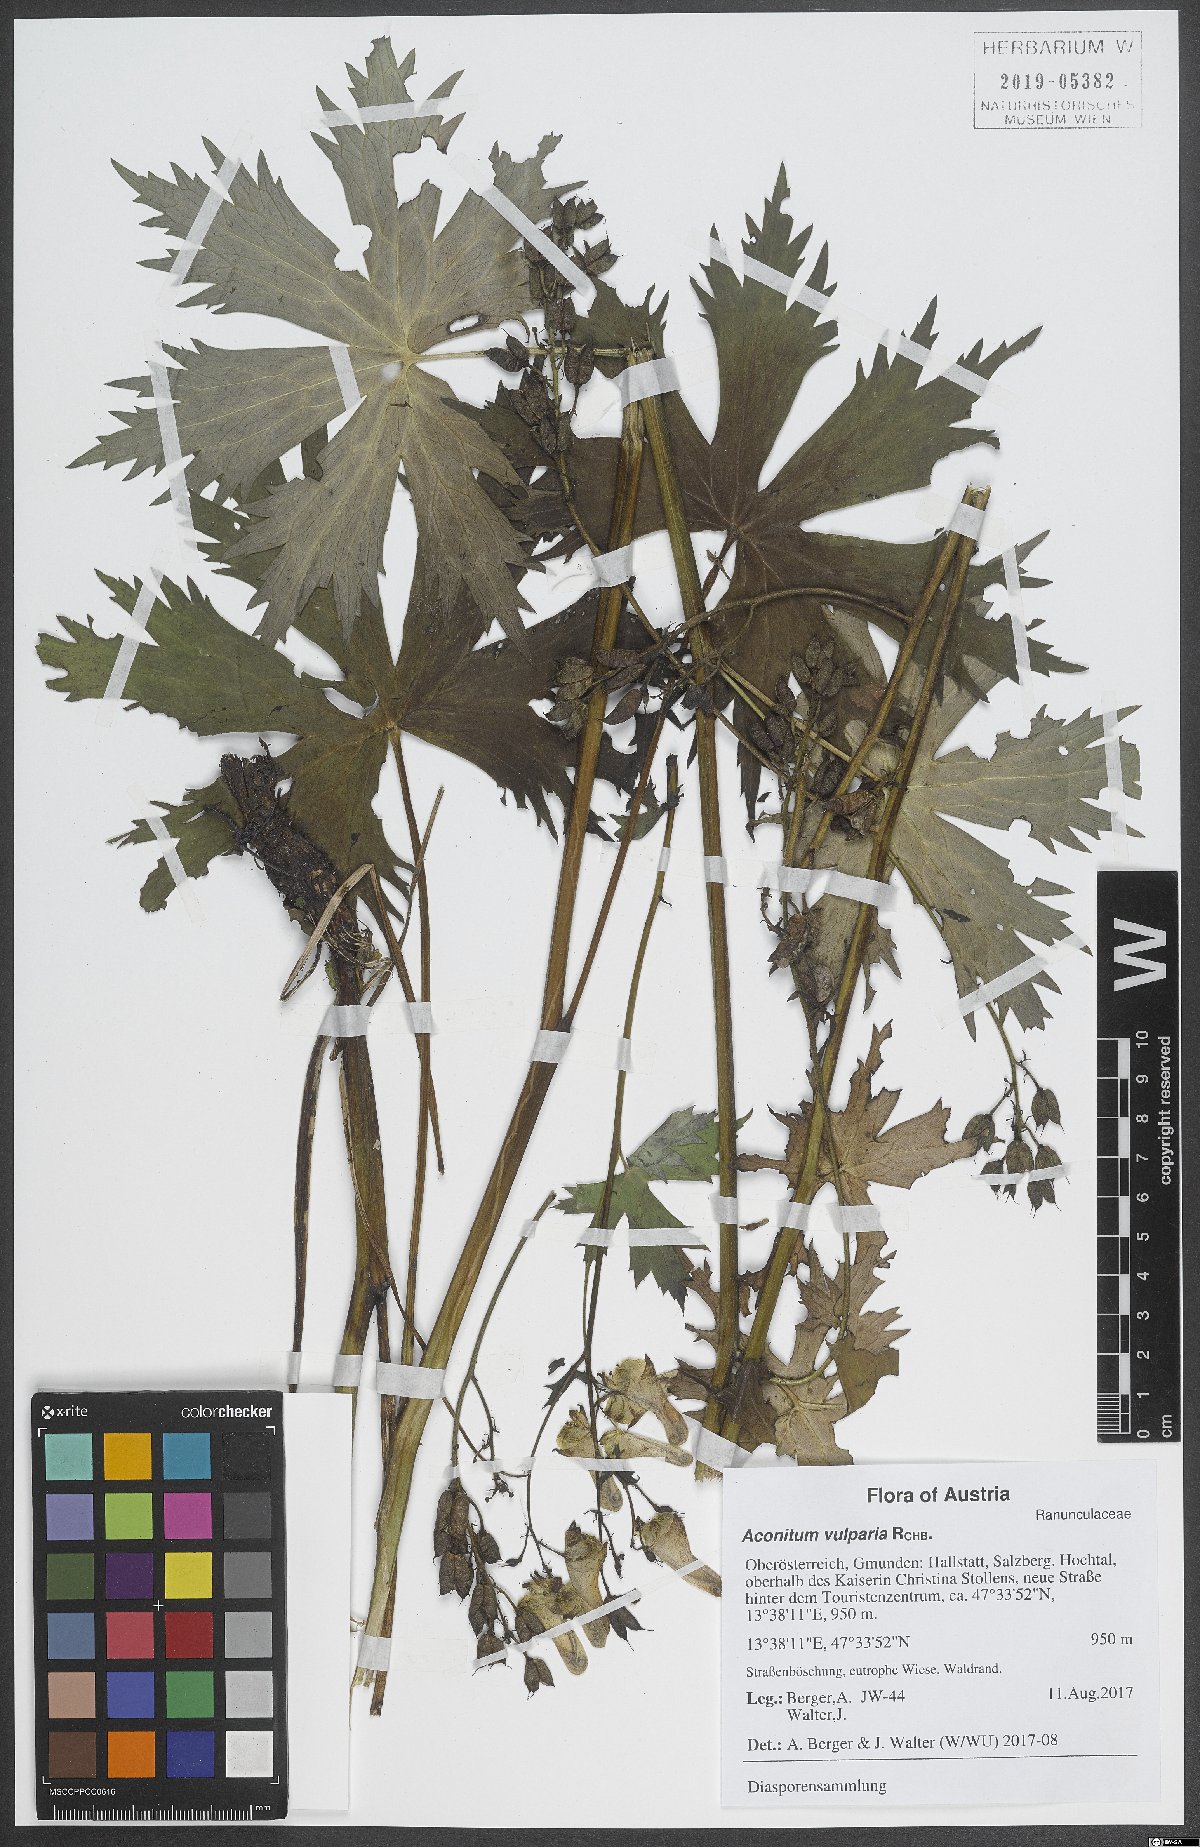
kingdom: Plantae
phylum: Tracheophyta
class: Magnoliopsida
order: Ranunculales
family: Ranunculaceae
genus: Aconitum
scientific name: Aconitum lycoctonum
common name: Wolf's-bane
